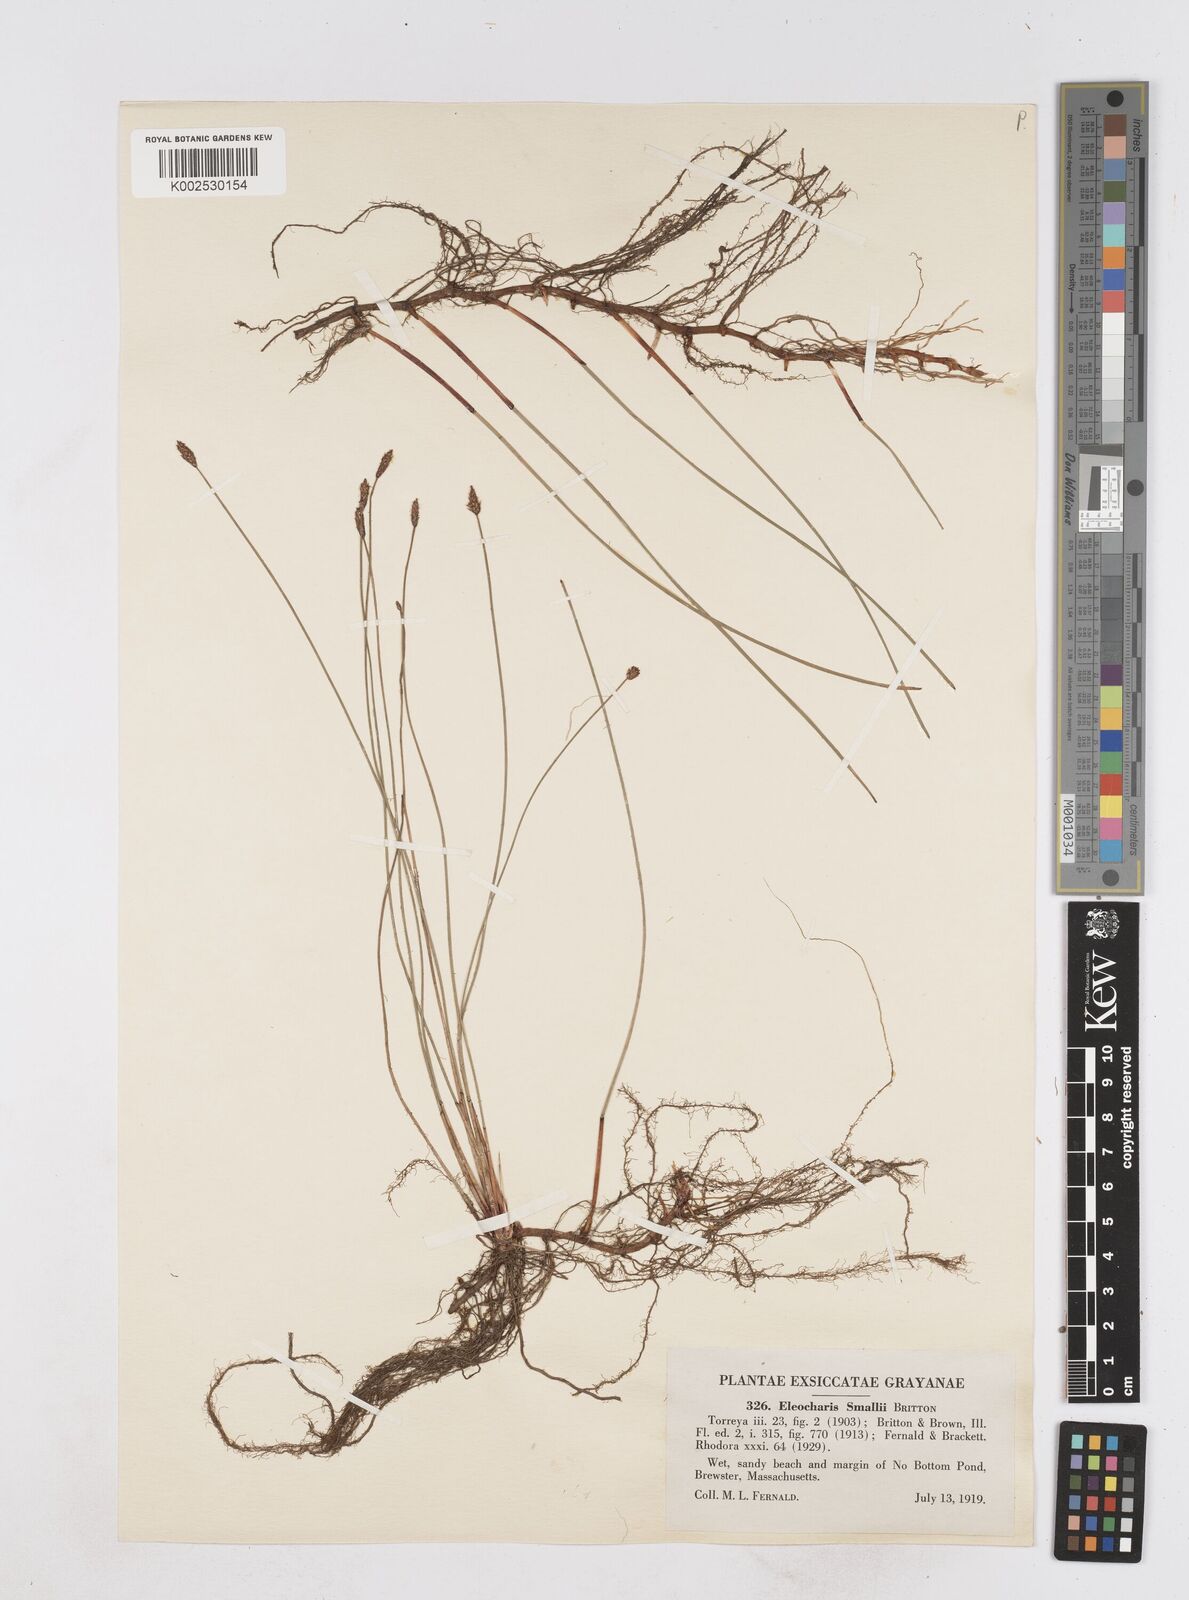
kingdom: Plantae
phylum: Tracheophyta
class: Liliopsida
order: Poales
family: Cyperaceae
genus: Eleocharis
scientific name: Eleocharis palustris
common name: Common spike-rush
